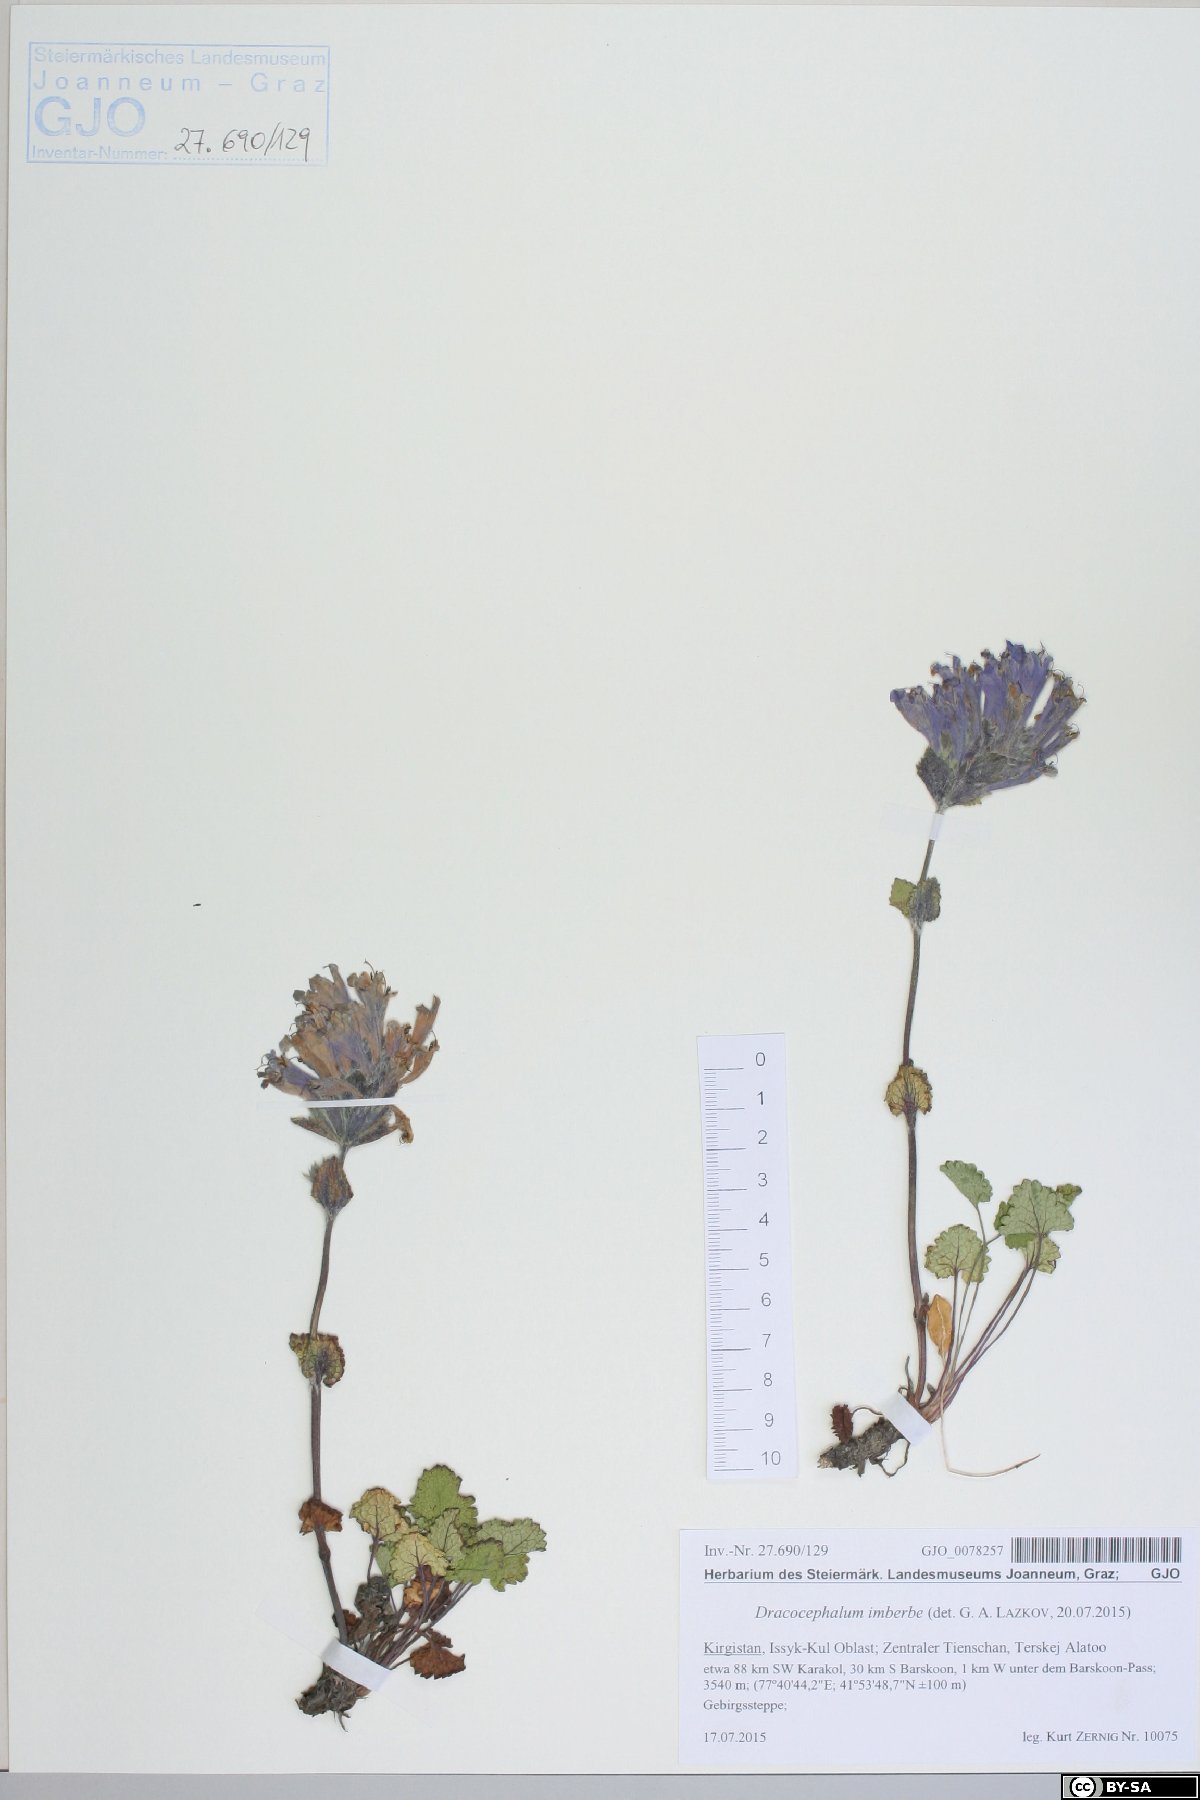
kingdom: Plantae
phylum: Tracheophyta
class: Magnoliopsida
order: Lamiales
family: Lamiaceae
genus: Dracocephalum
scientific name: Dracocephalum imberbe
